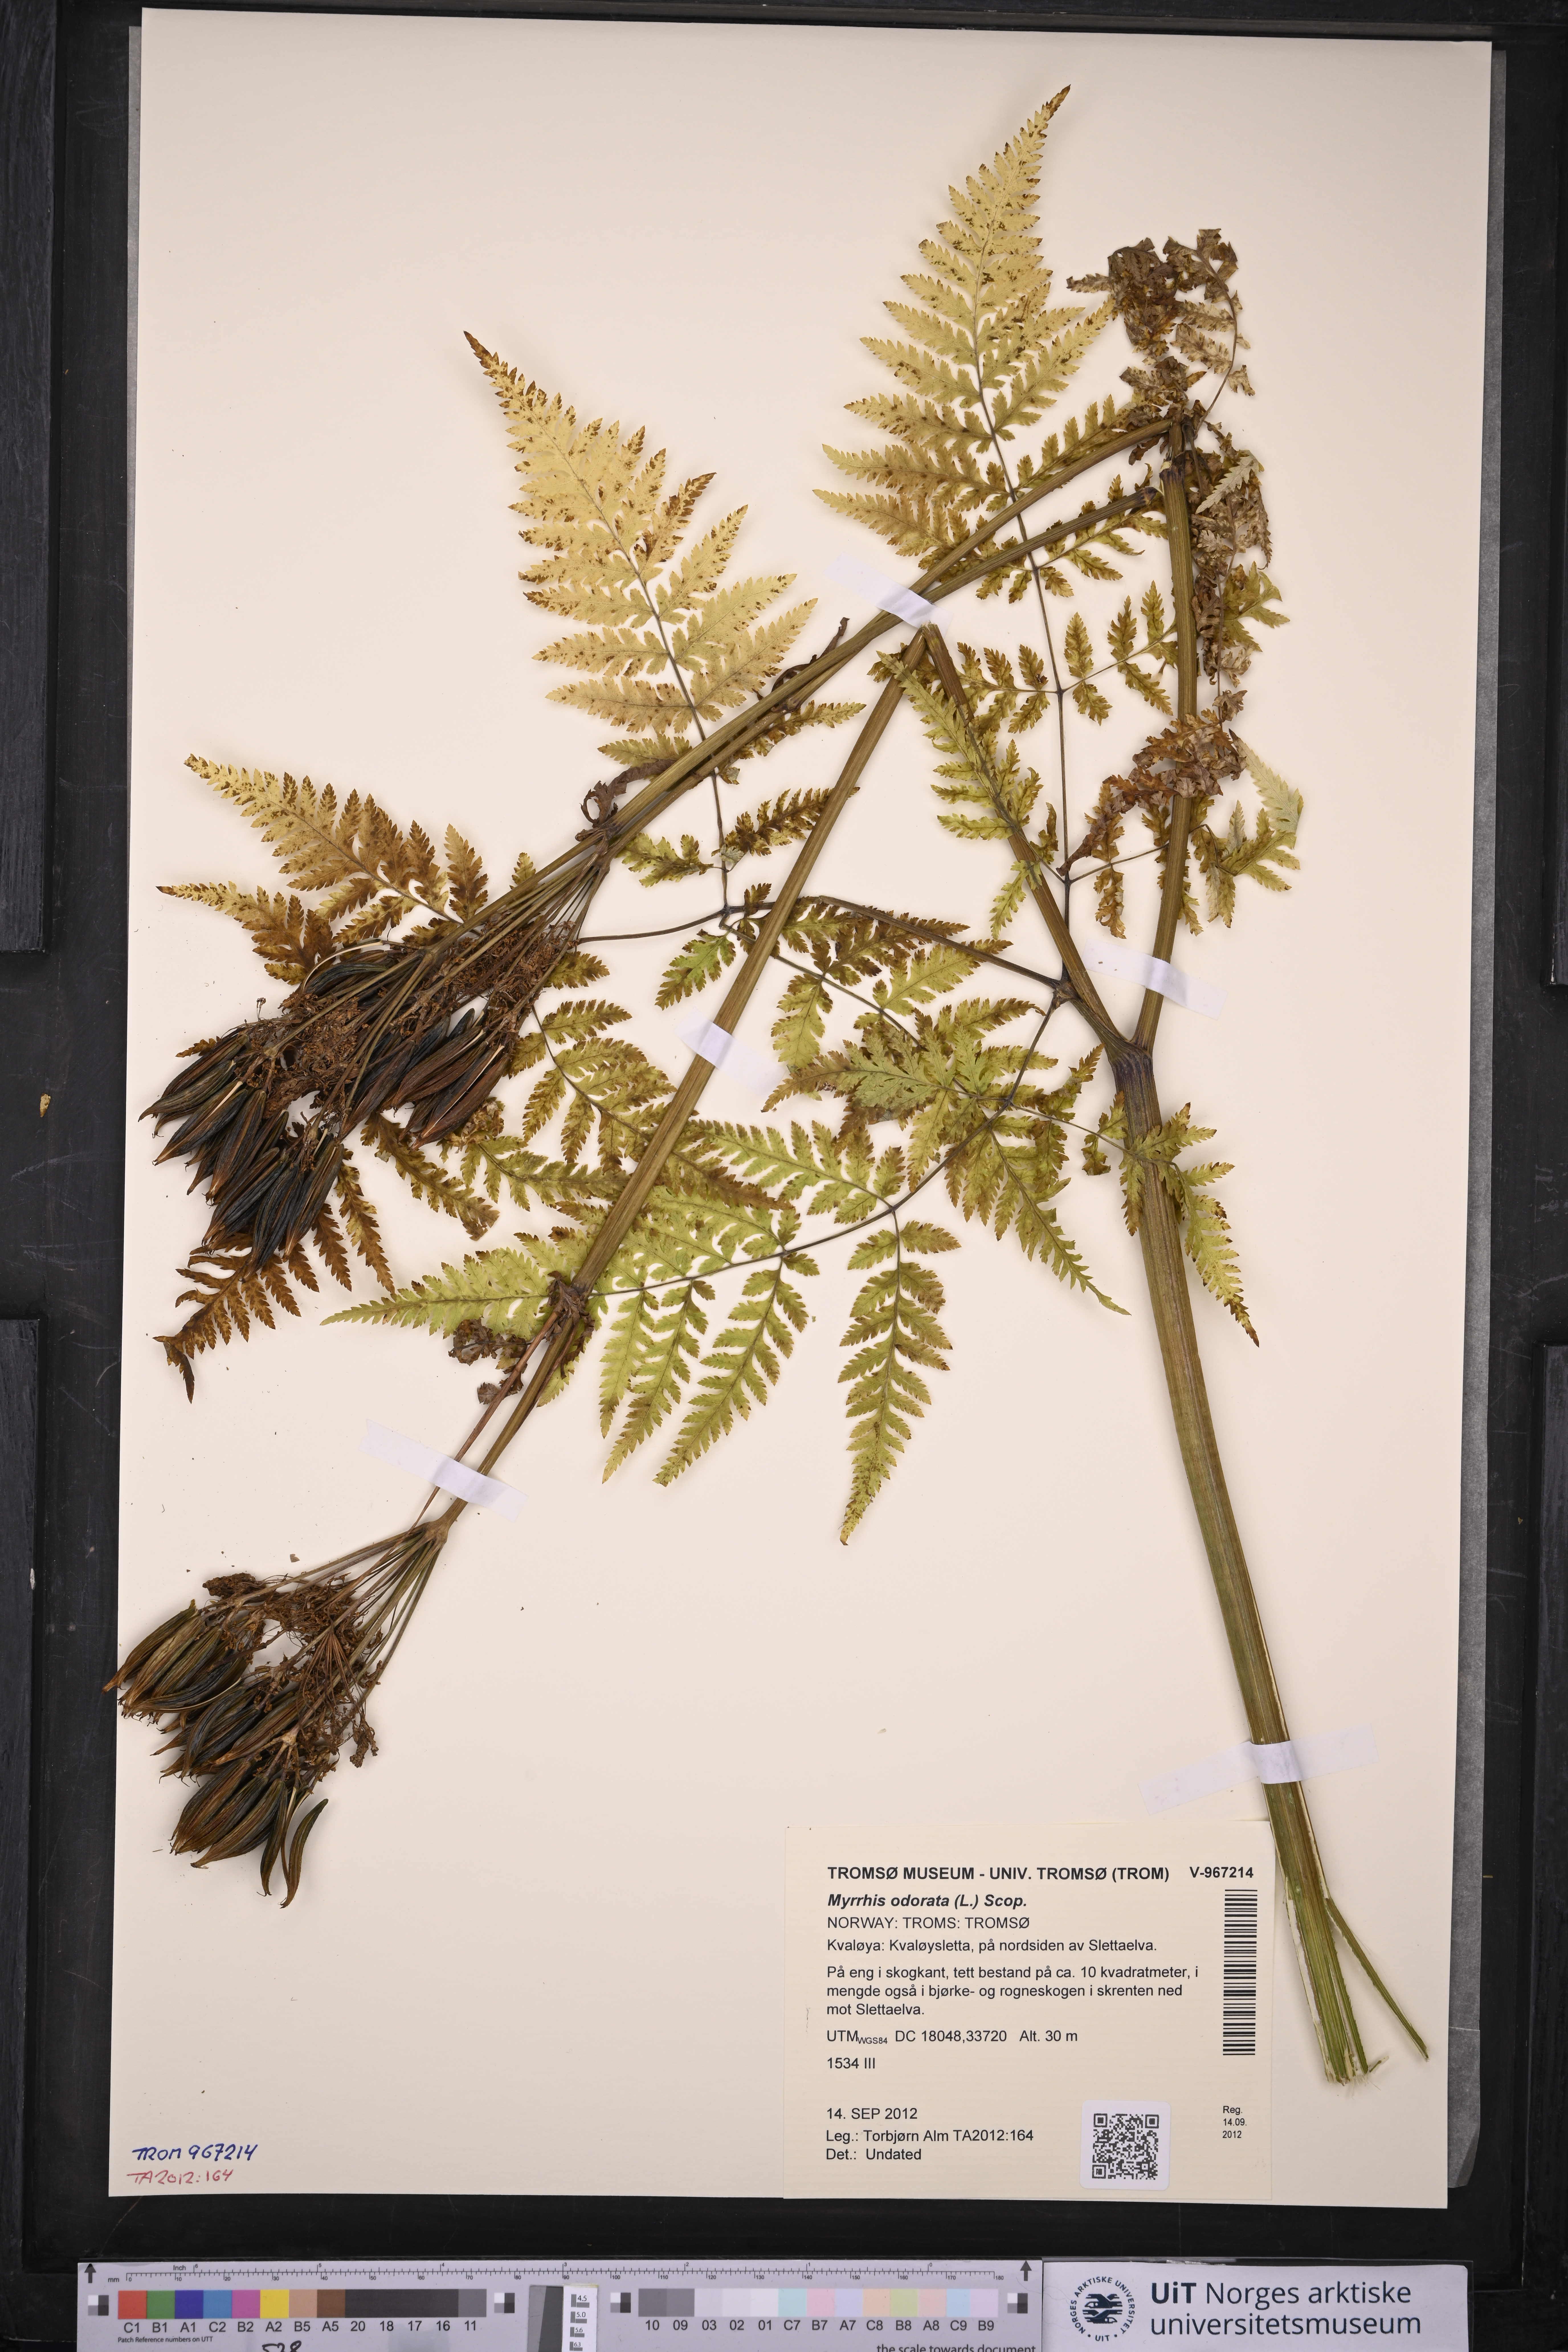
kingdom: Plantae
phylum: Tracheophyta
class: Magnoliopsida
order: Apiales
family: Apiaceae
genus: Myrrhis
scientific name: Myrrhis odorata
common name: Sweet cicely
